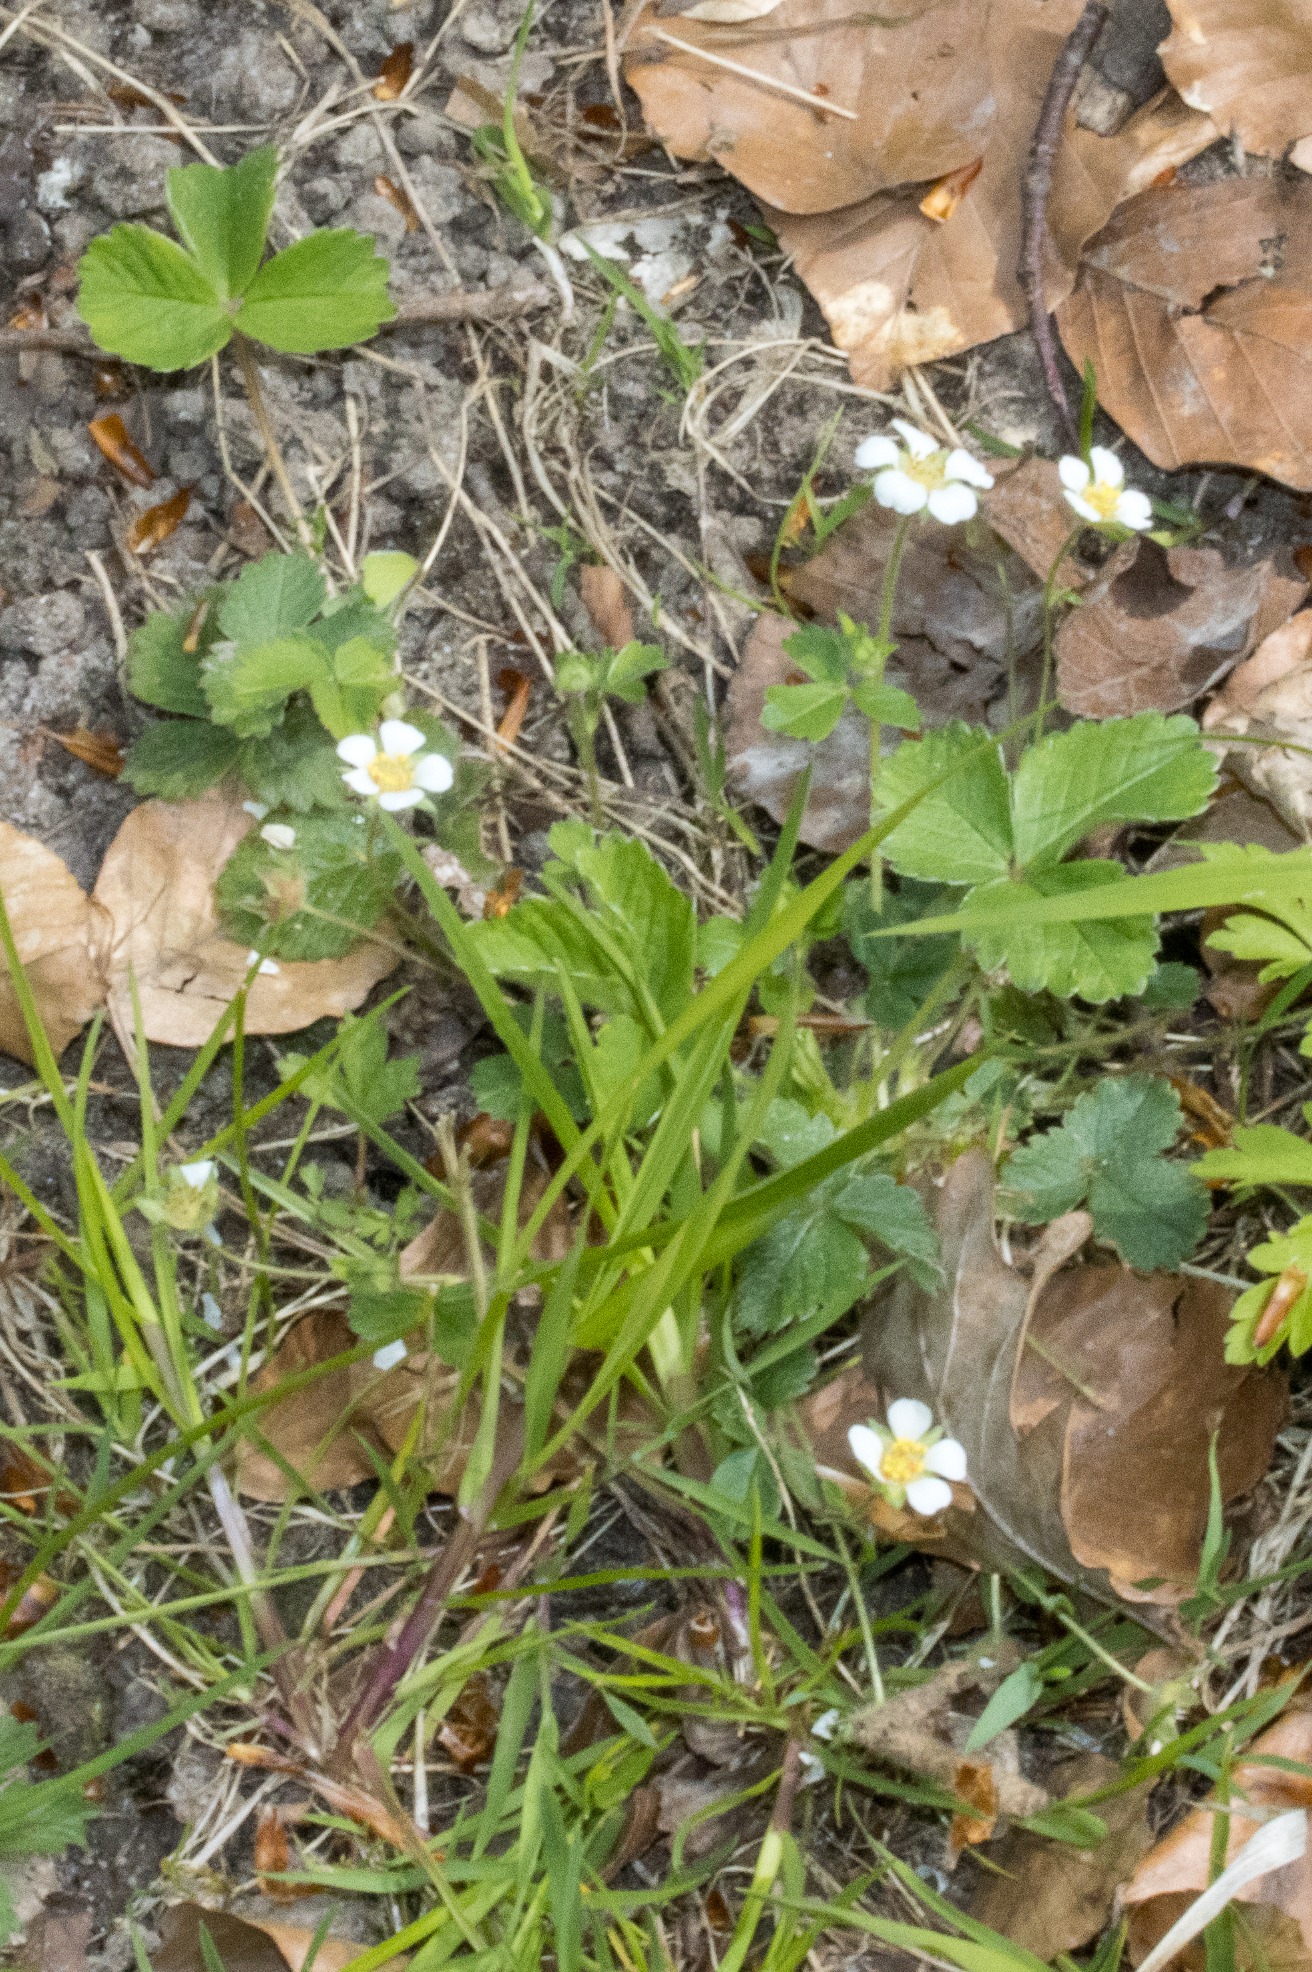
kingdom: Plantae
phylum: Tracheophyta
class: Magnoliopsida
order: Rosales
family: Rosaceae
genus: Potentilla
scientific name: Potentilla sterilis
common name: Jordbær-potentil
